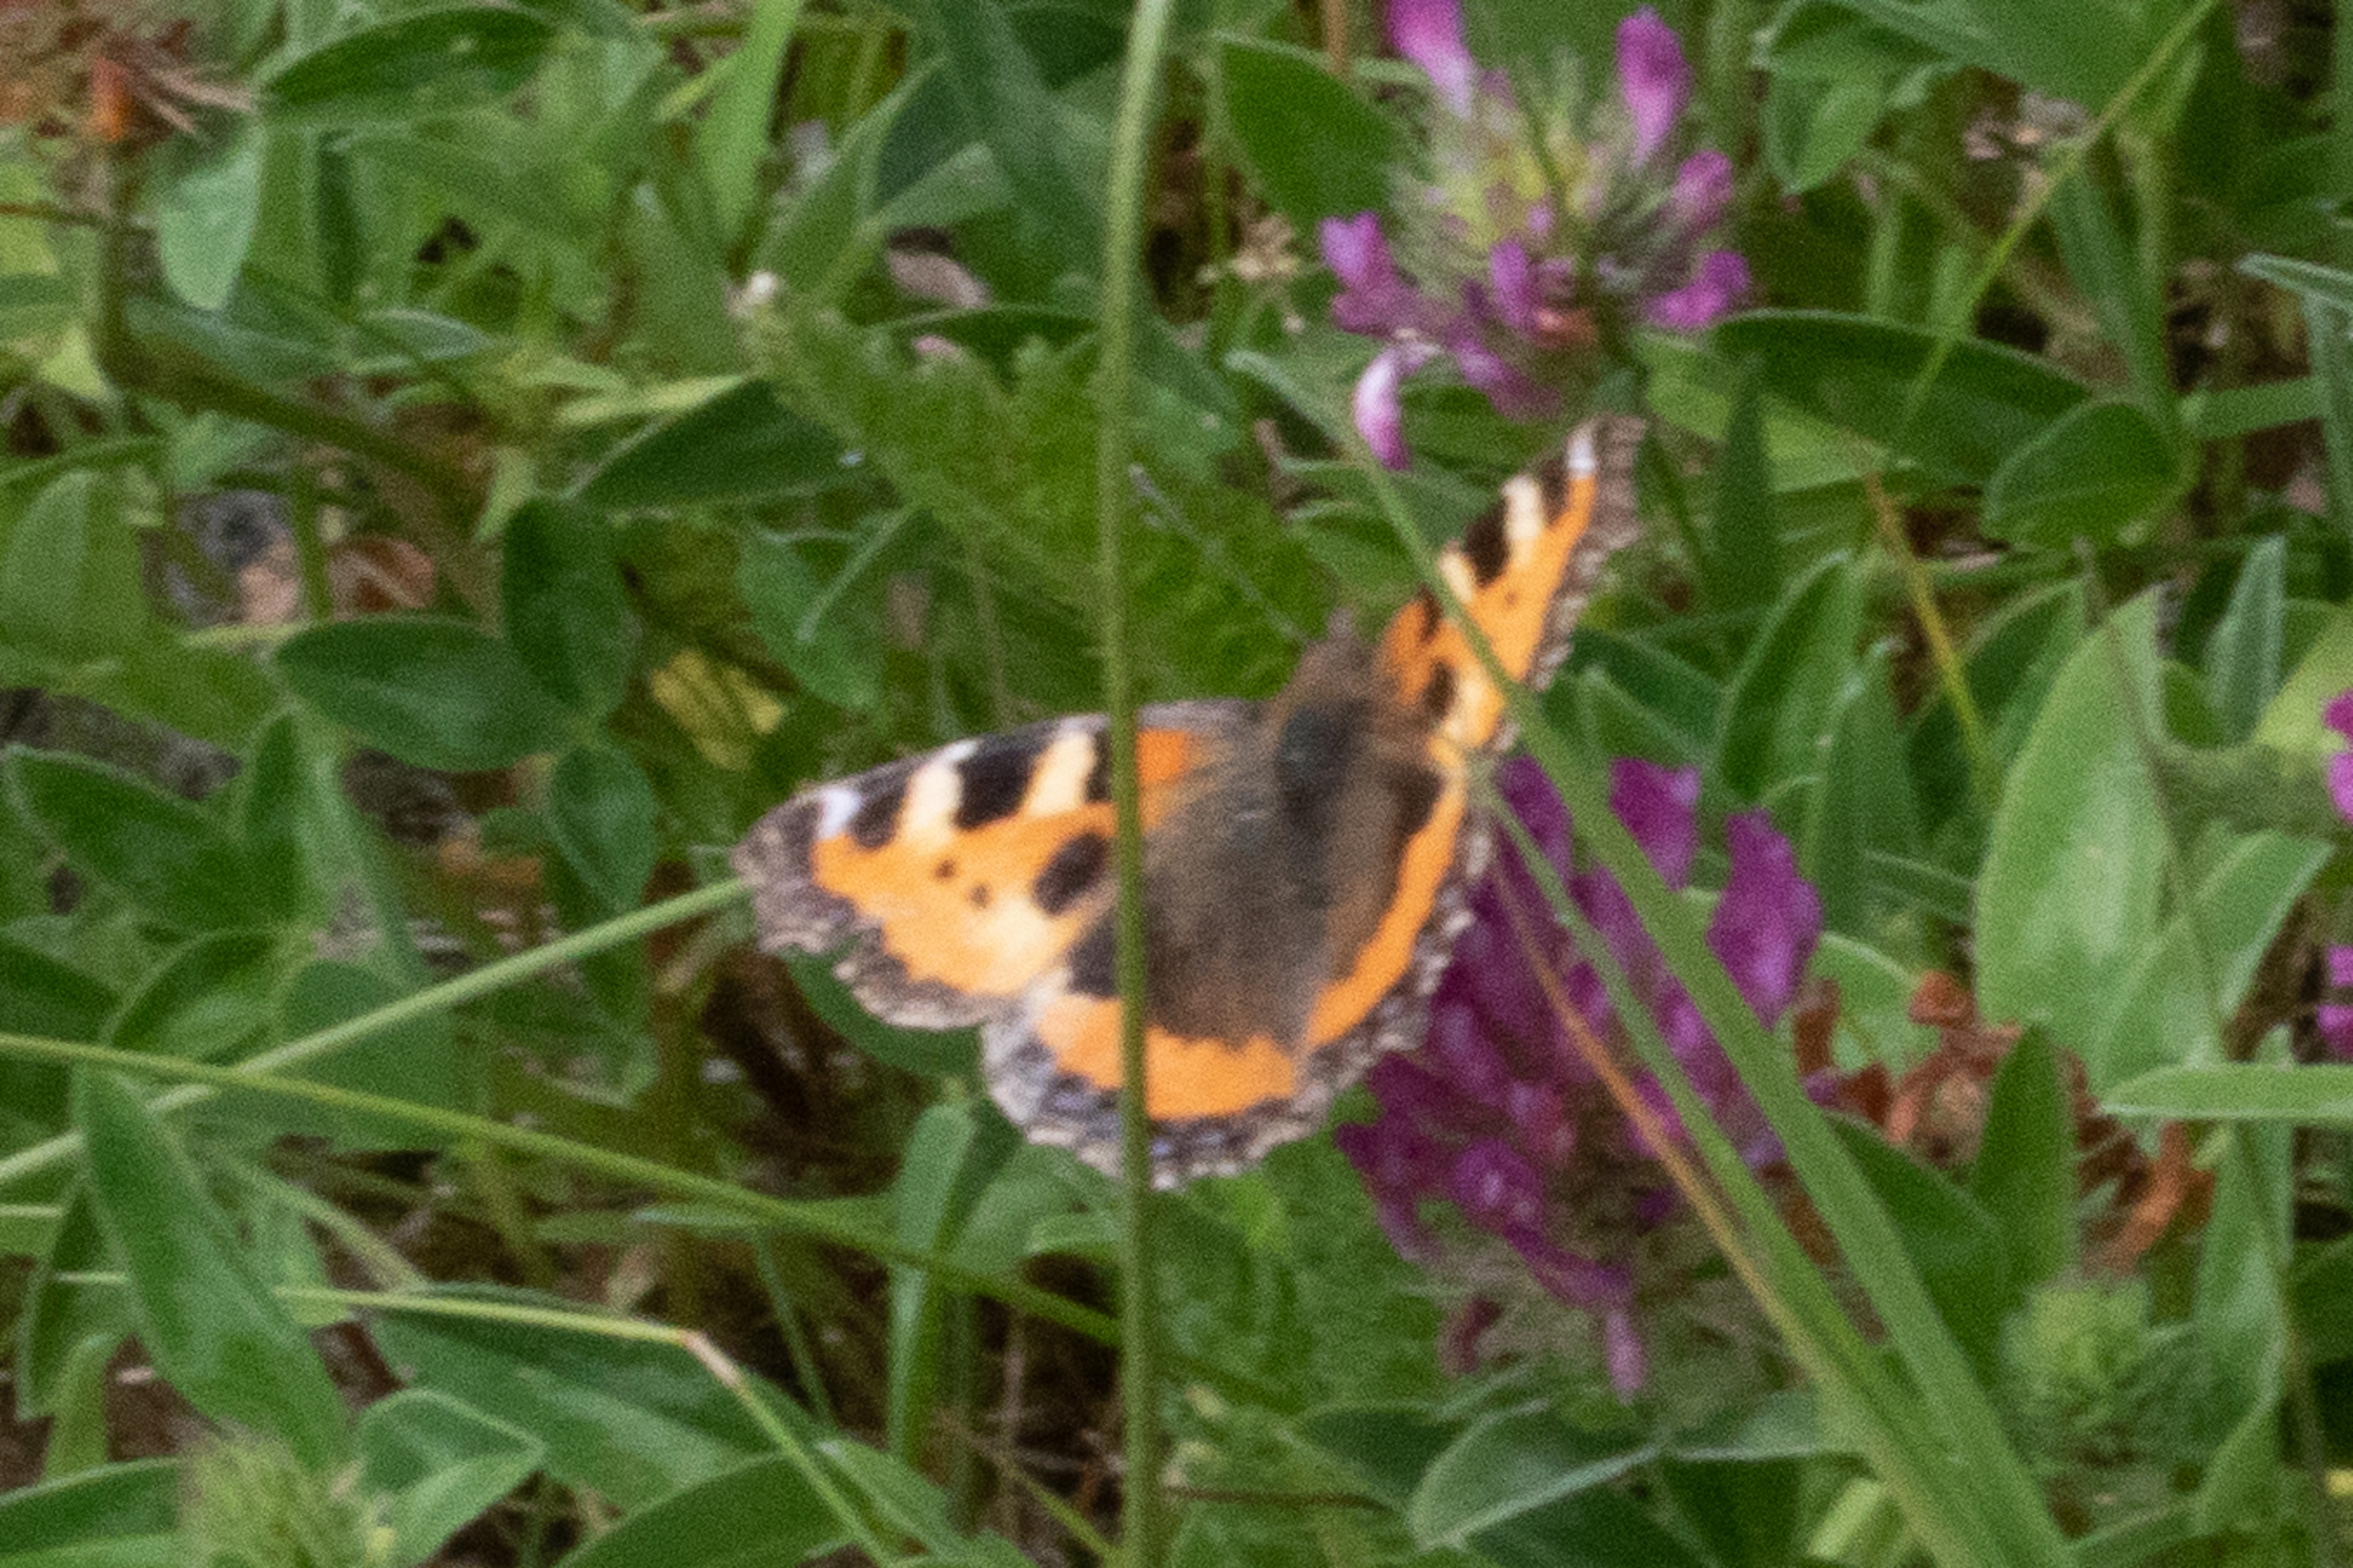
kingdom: Animalia
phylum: Arthropoda
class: Insecta
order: Lepidoptera
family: Nymphalidae
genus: Aglais
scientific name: Aglais urticae
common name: Nældens takvinge
